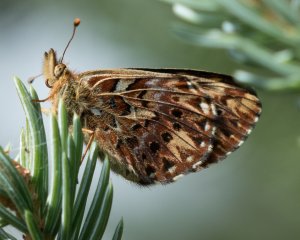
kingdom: Animalia
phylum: Arthropoda
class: Insecta
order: Lepidoptera
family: Nymphalidae
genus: Boloria
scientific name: Boloria chariclea
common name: Arctic Fritillary
